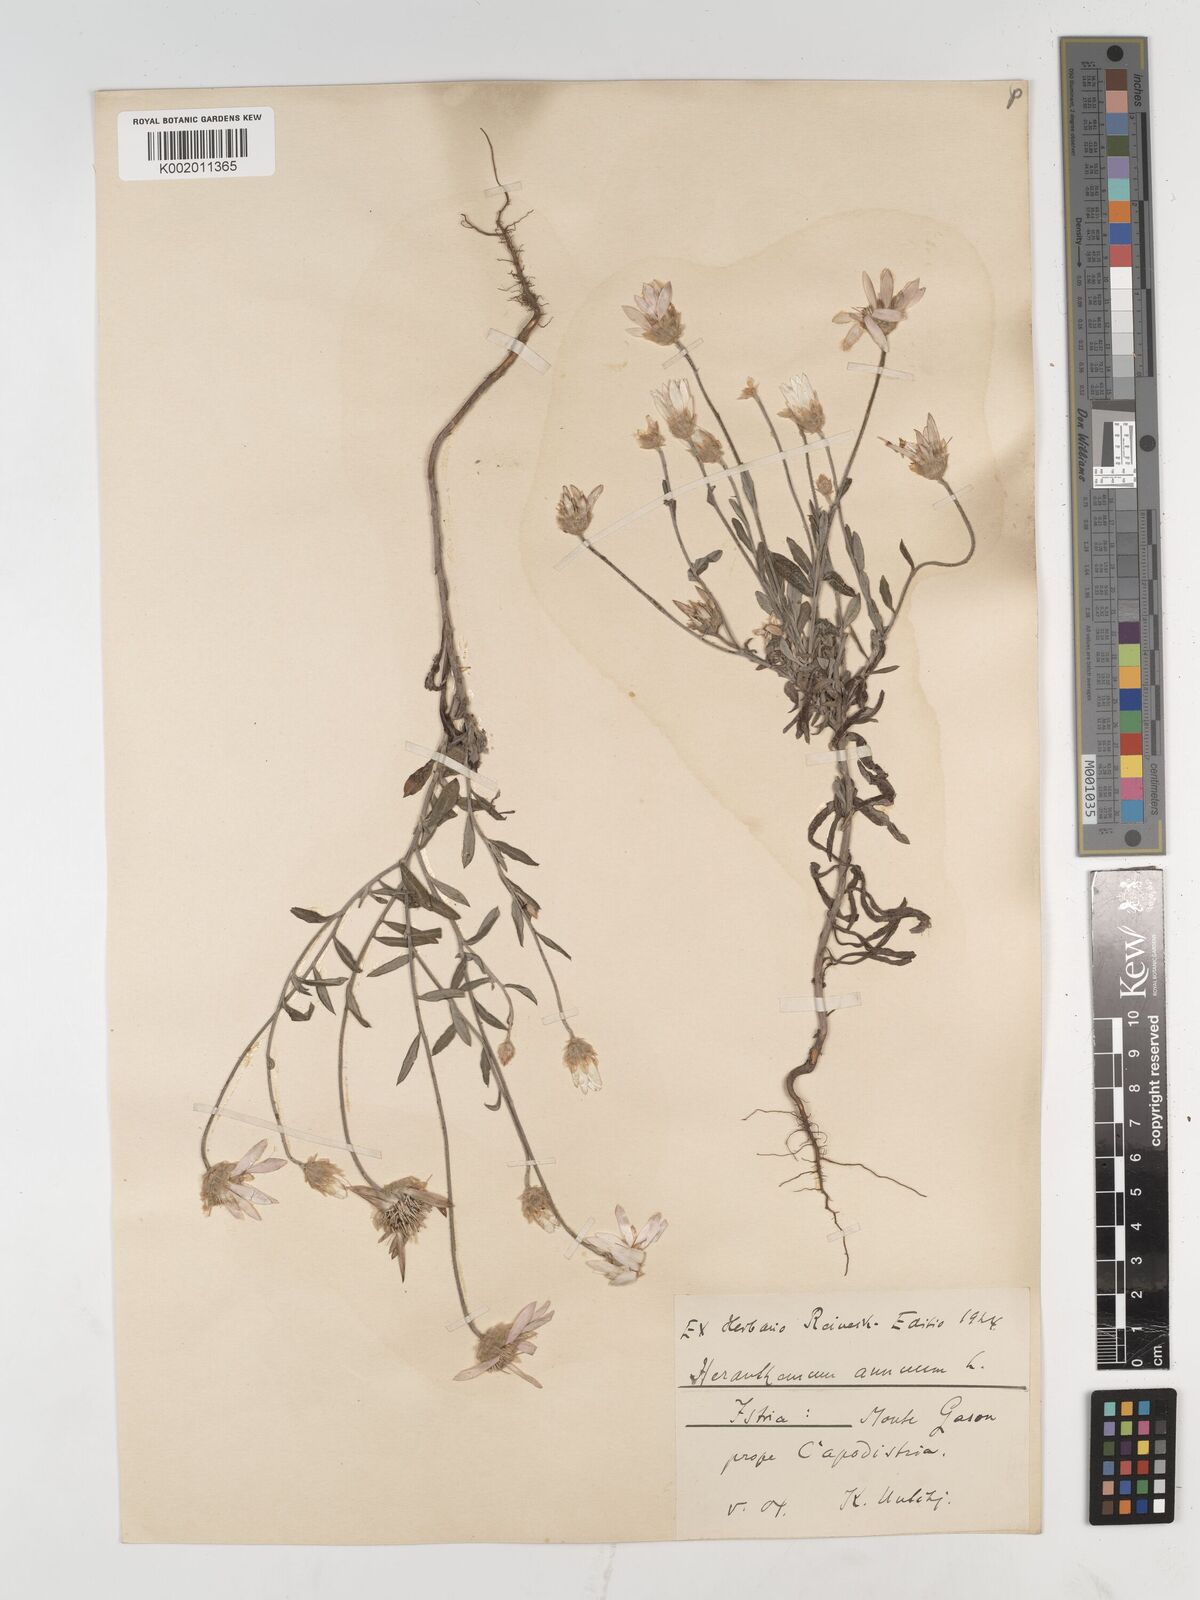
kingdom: Plantae
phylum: Tracheophyta
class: Magnoliopsida
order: Asterales
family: Asteraceae
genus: Xeranthemum
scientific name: Xeranthemum annuum
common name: Immortelle
